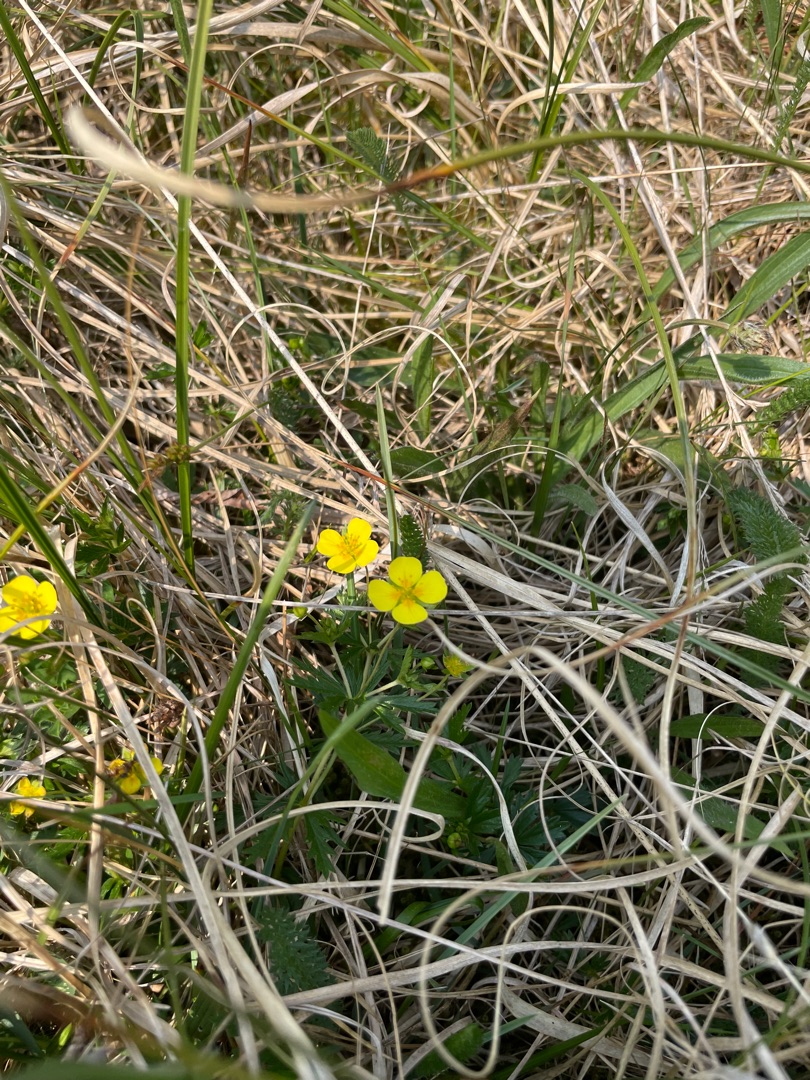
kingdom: Plantae
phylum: Tracheophyta
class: Magnoliopsida
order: Rosales
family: Rosaceae
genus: Potentilla
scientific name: Potentilla erecta
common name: Tormentil
